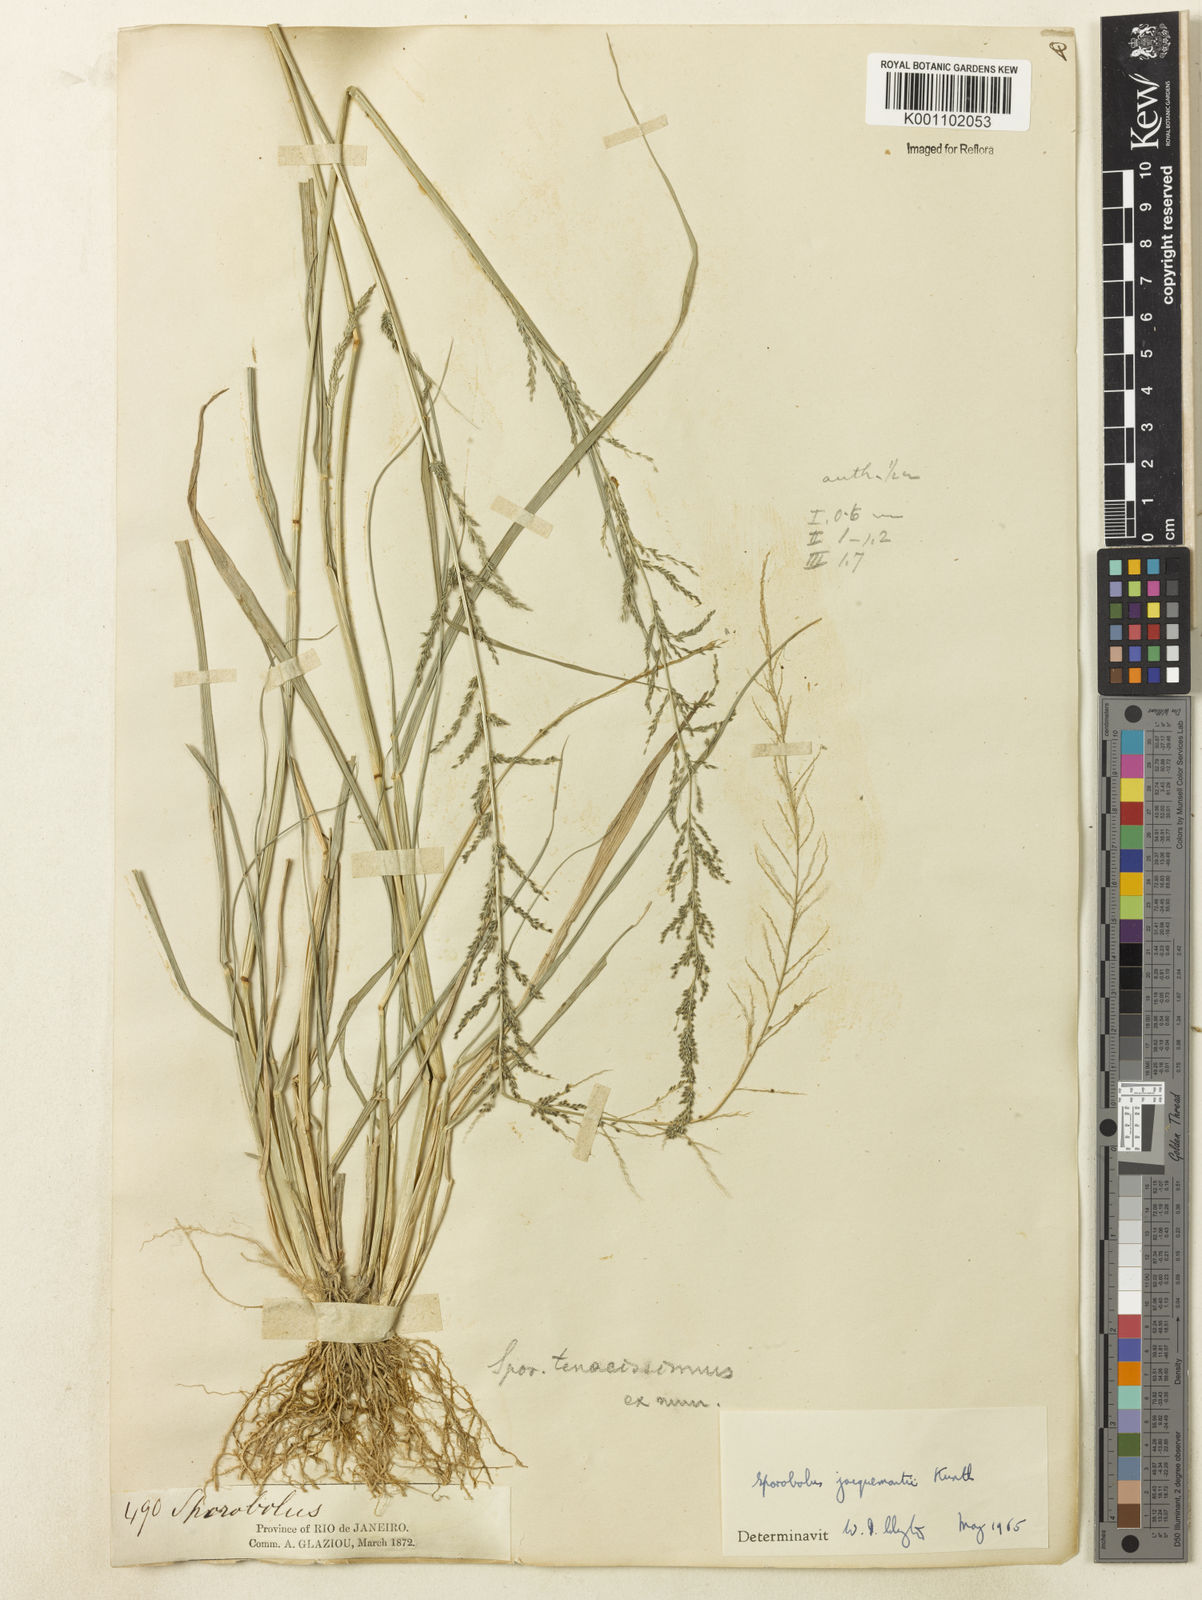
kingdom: Plantae
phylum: Tracheophyta
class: Liliopsida
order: Poales
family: Poaceae
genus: Sporobolus
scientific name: Sporobolus pyramidalis
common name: West indian dropseed
